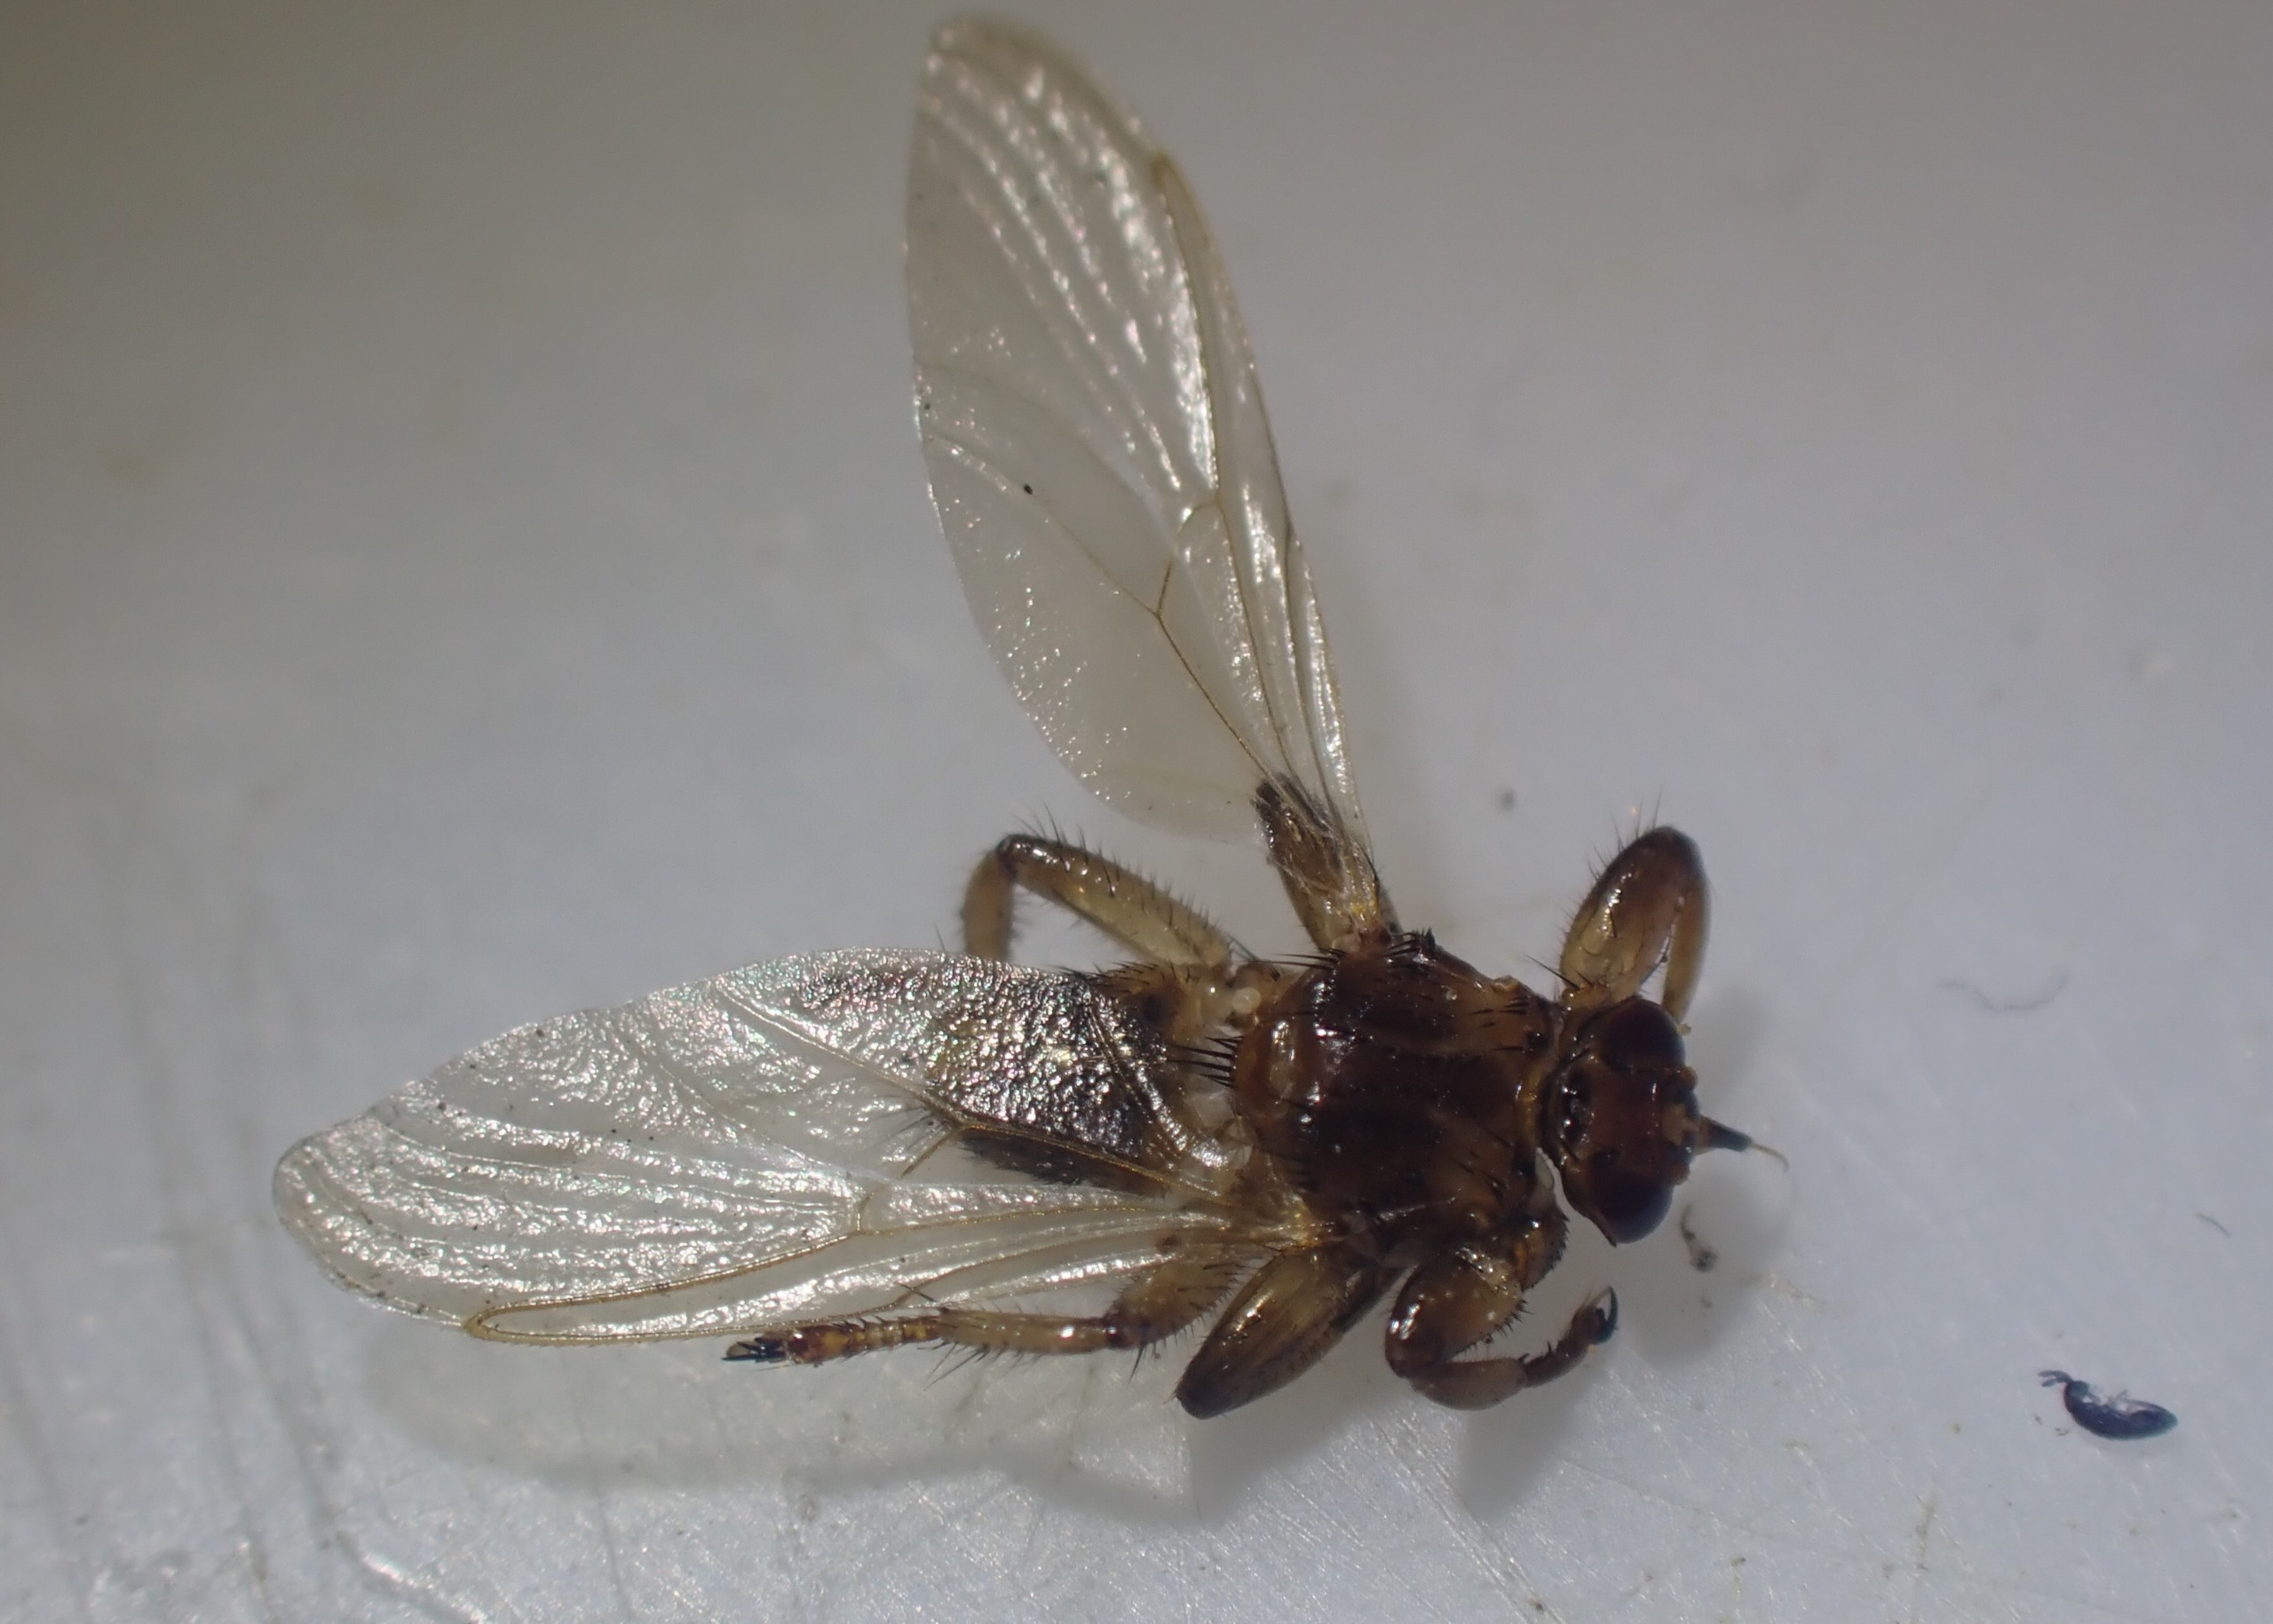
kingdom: Animalia
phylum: Arthropoda
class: Insecta
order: Diptera
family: Hippoboscidae
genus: Lipoptena
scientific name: Lipoptena cervi
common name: Hjortelus
